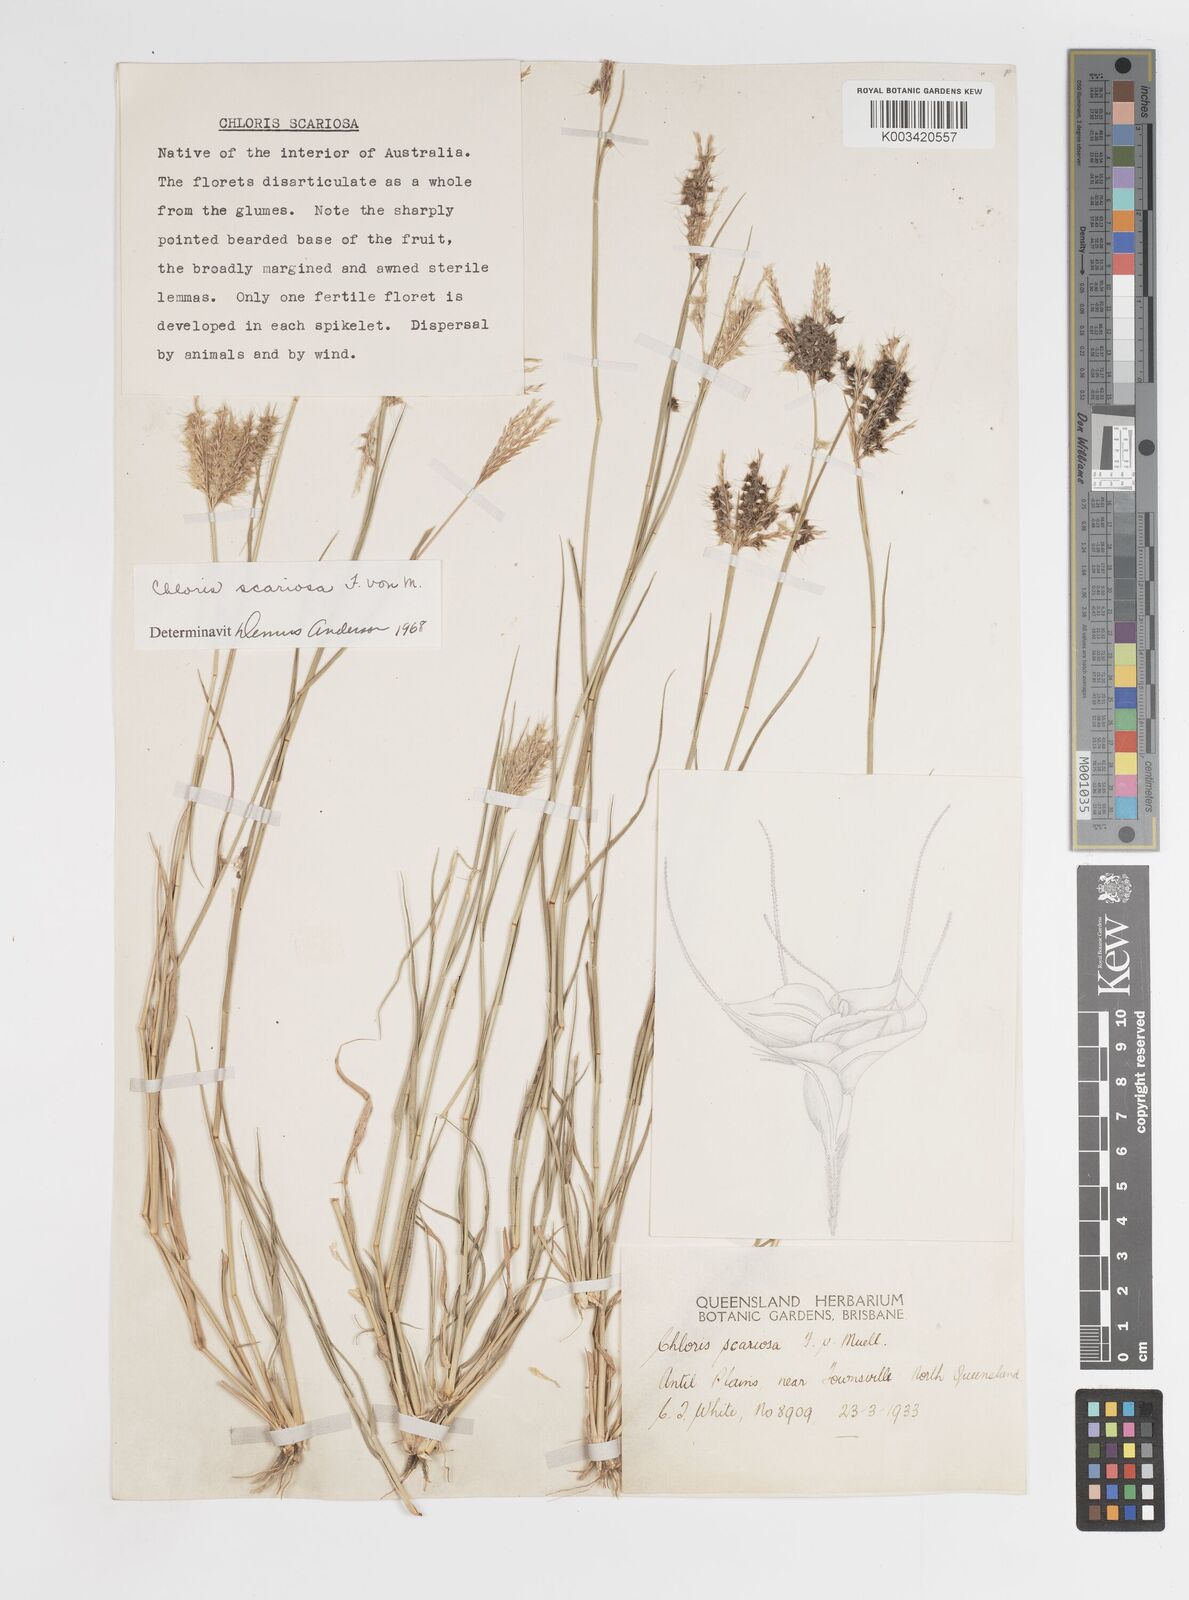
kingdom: Plantae
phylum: Tracheophyta
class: Liliopsida
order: Poales
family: Poaceae
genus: Oxychloris
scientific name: Oxychloris scariosa
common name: Winged windmill grass
